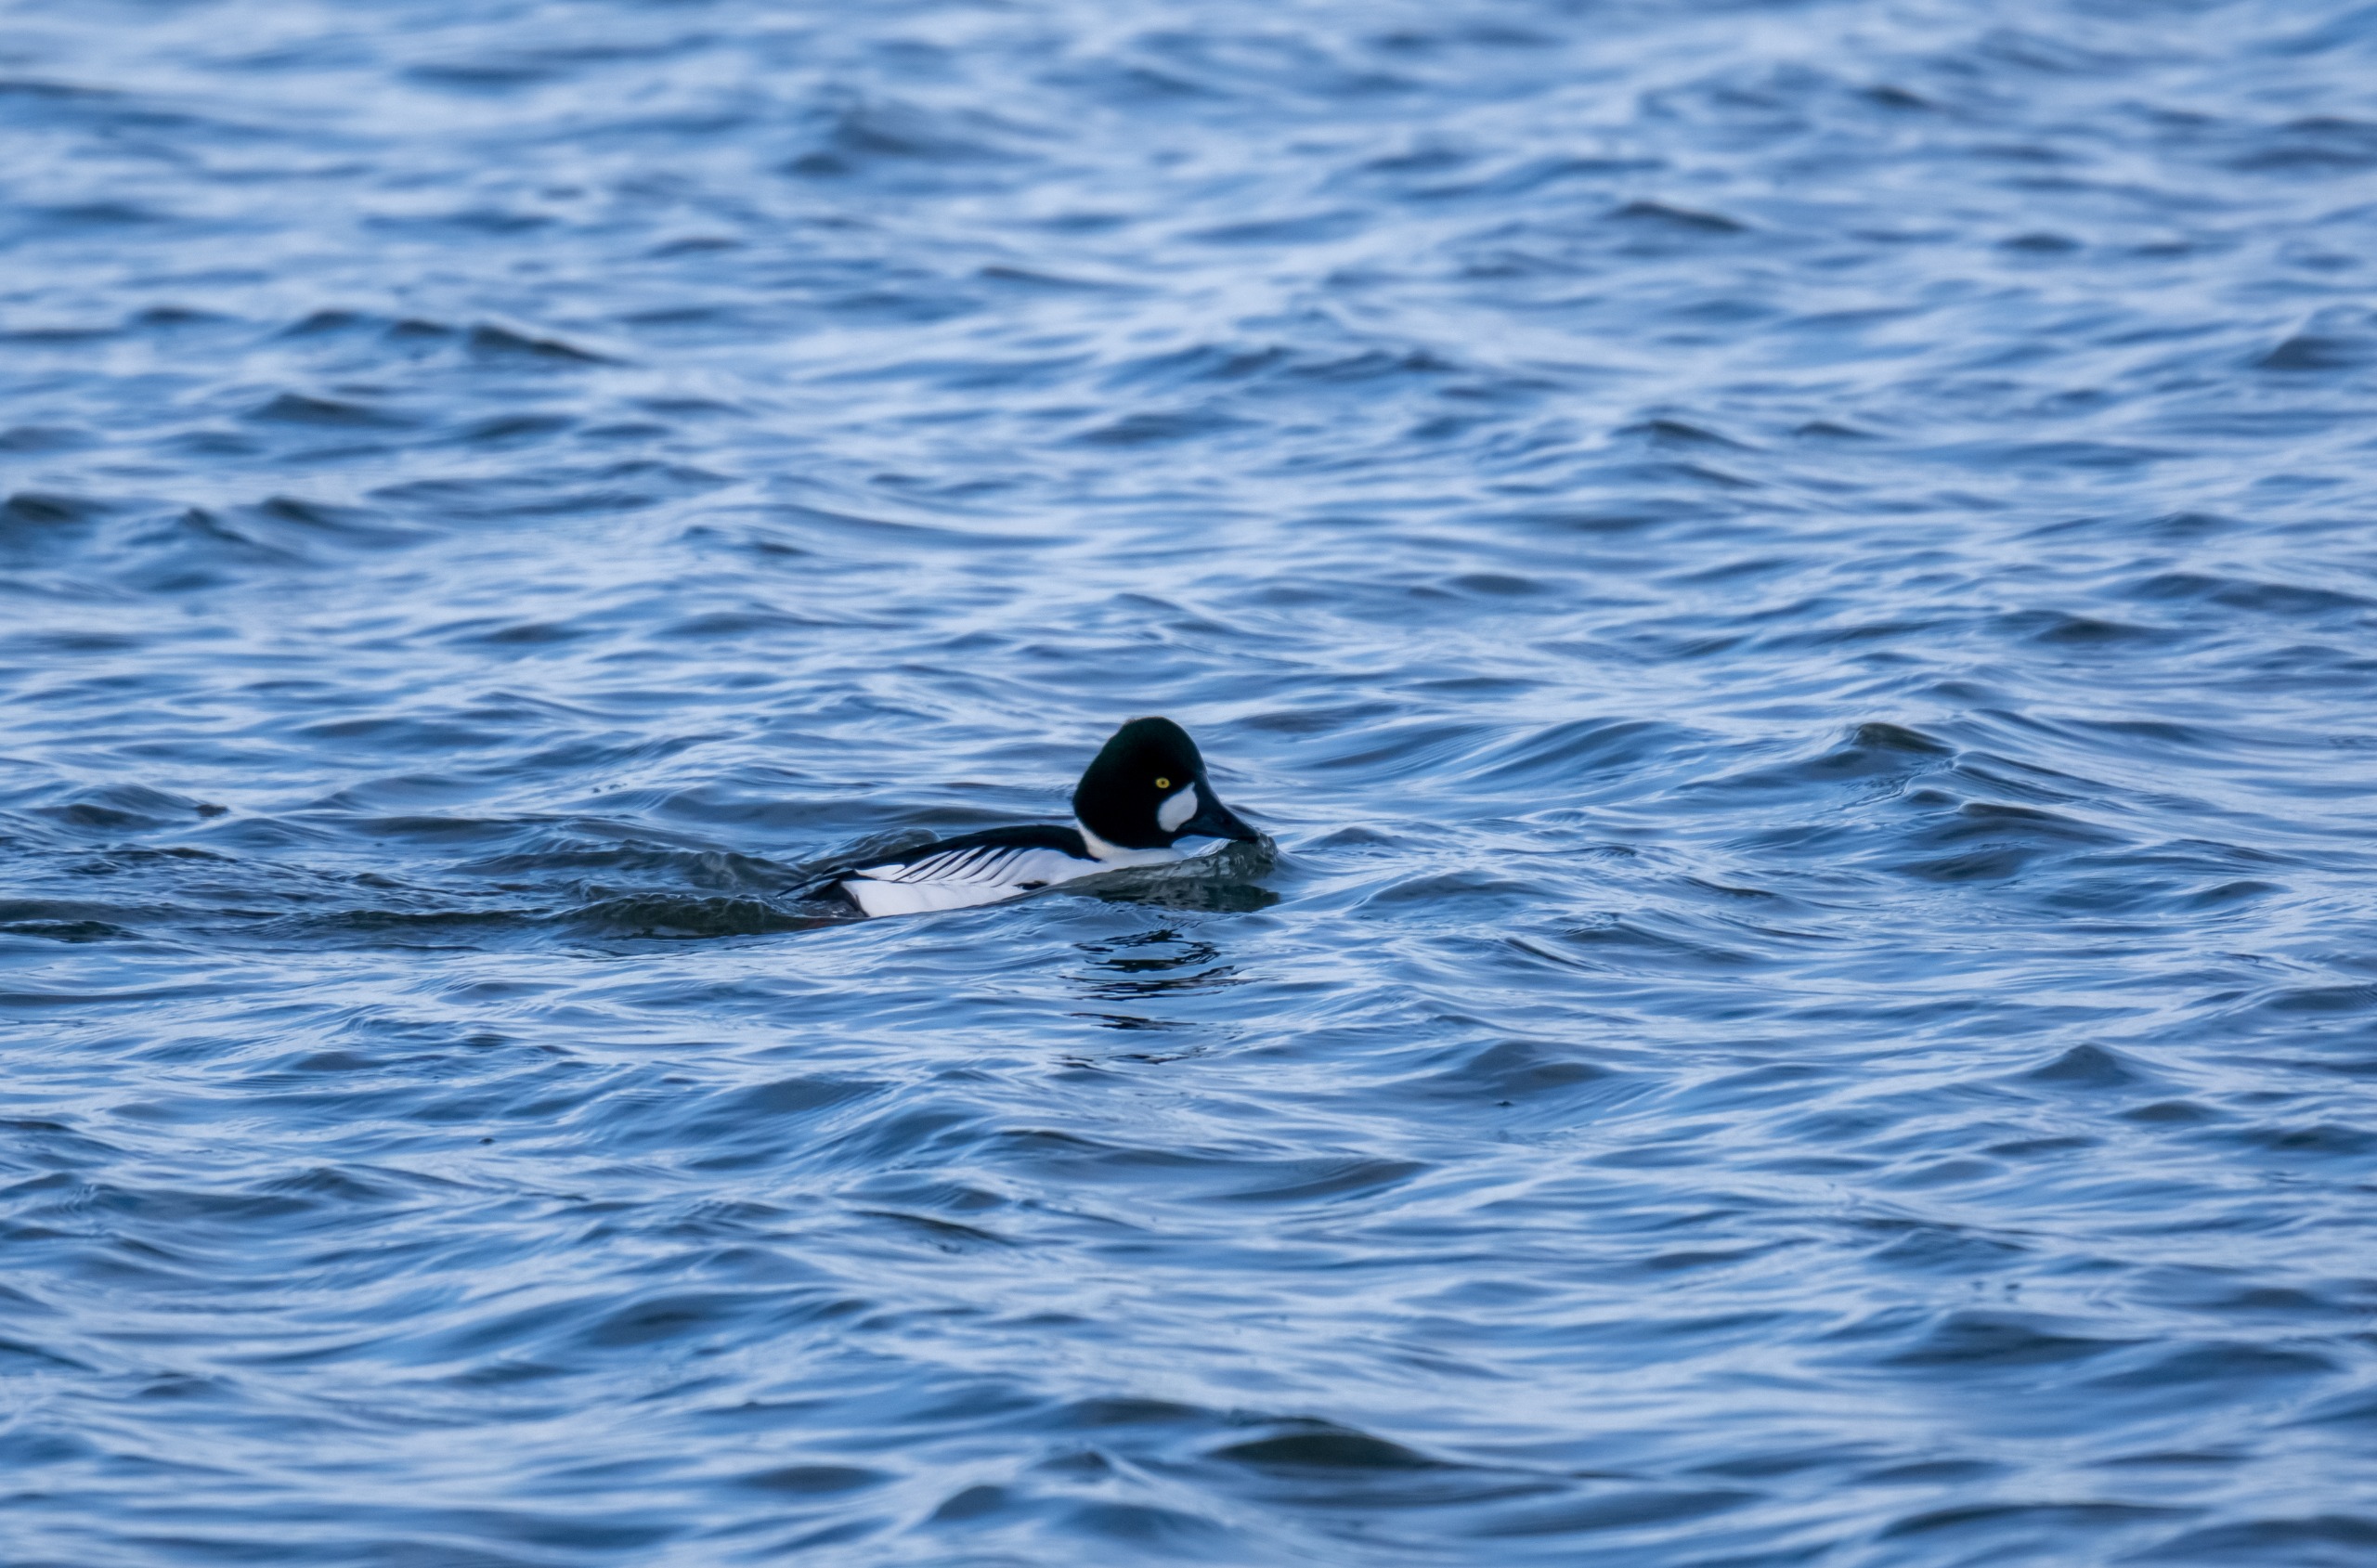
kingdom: Animalia
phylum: Chordata
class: Aves
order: Anseriformes
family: Anatidae
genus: Bucephala
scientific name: Bucephala clangula
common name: Hvinand
